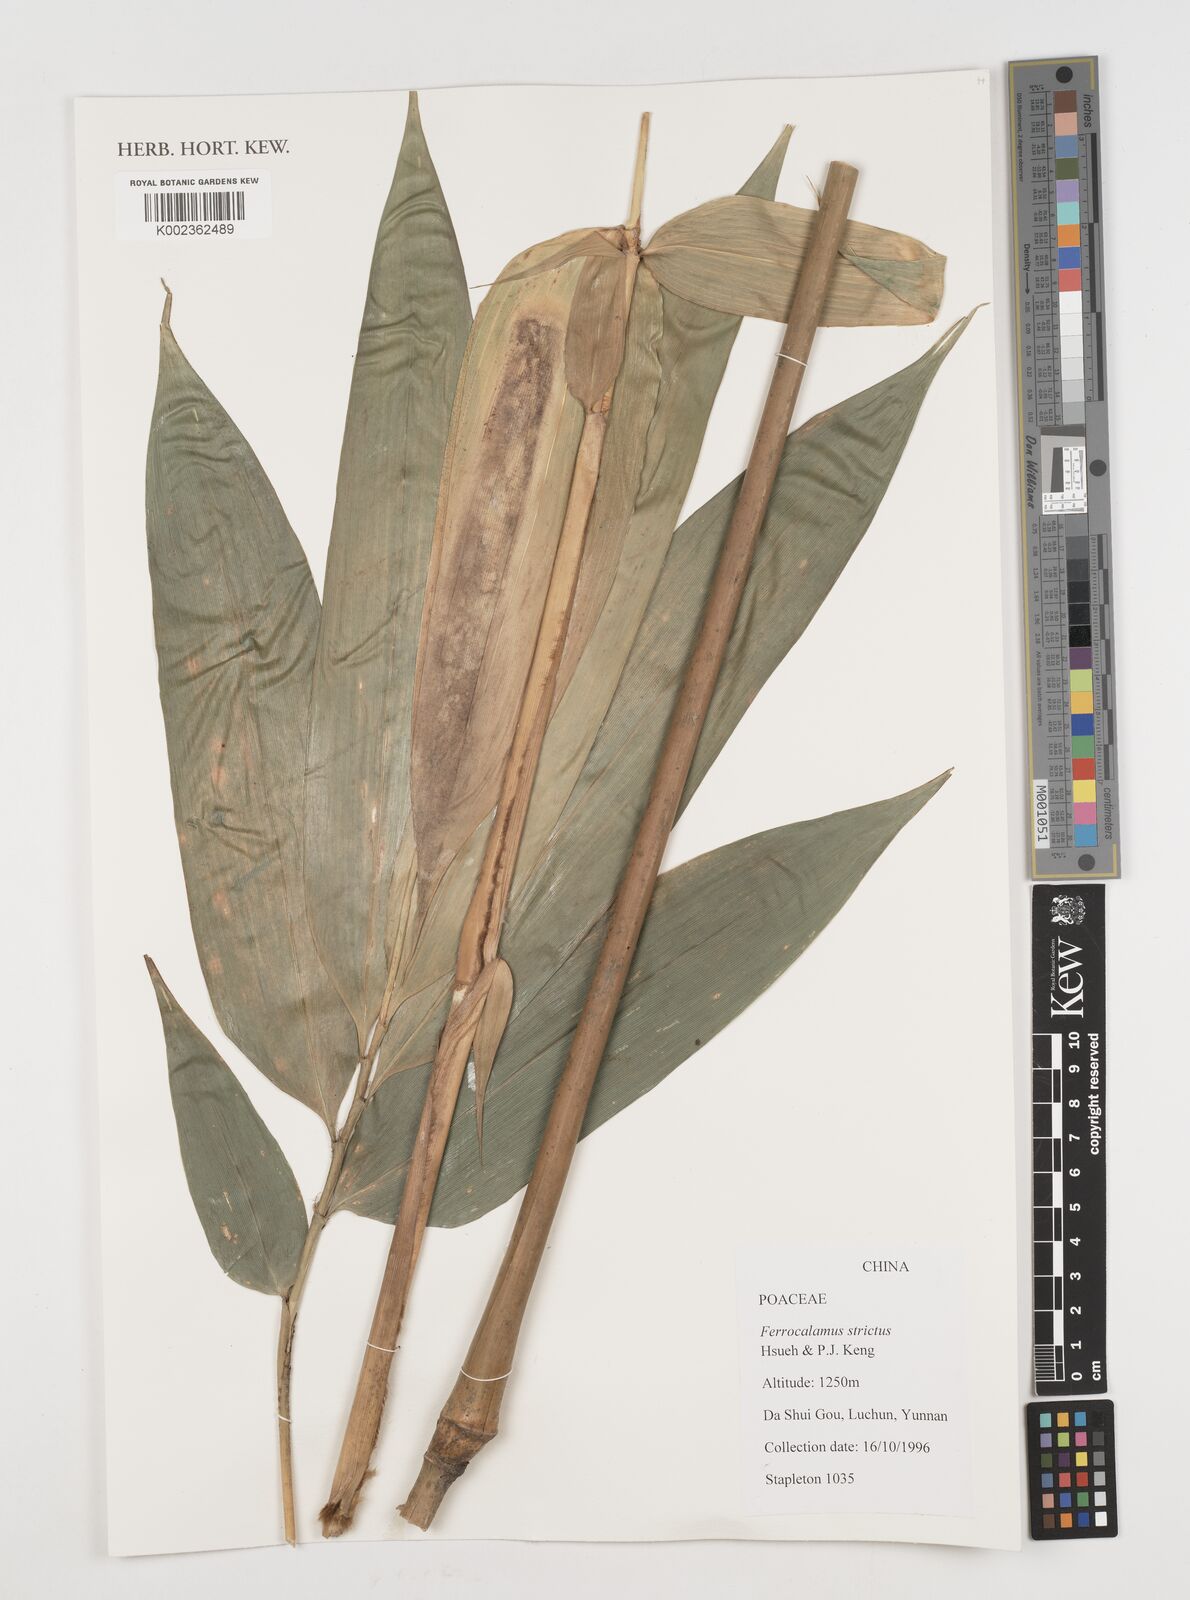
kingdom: Plantae
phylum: Tracheophyta
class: Liliopsida
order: Poales
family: Poaceae
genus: Ferrocalamus
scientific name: Ferrocalamus strictus
